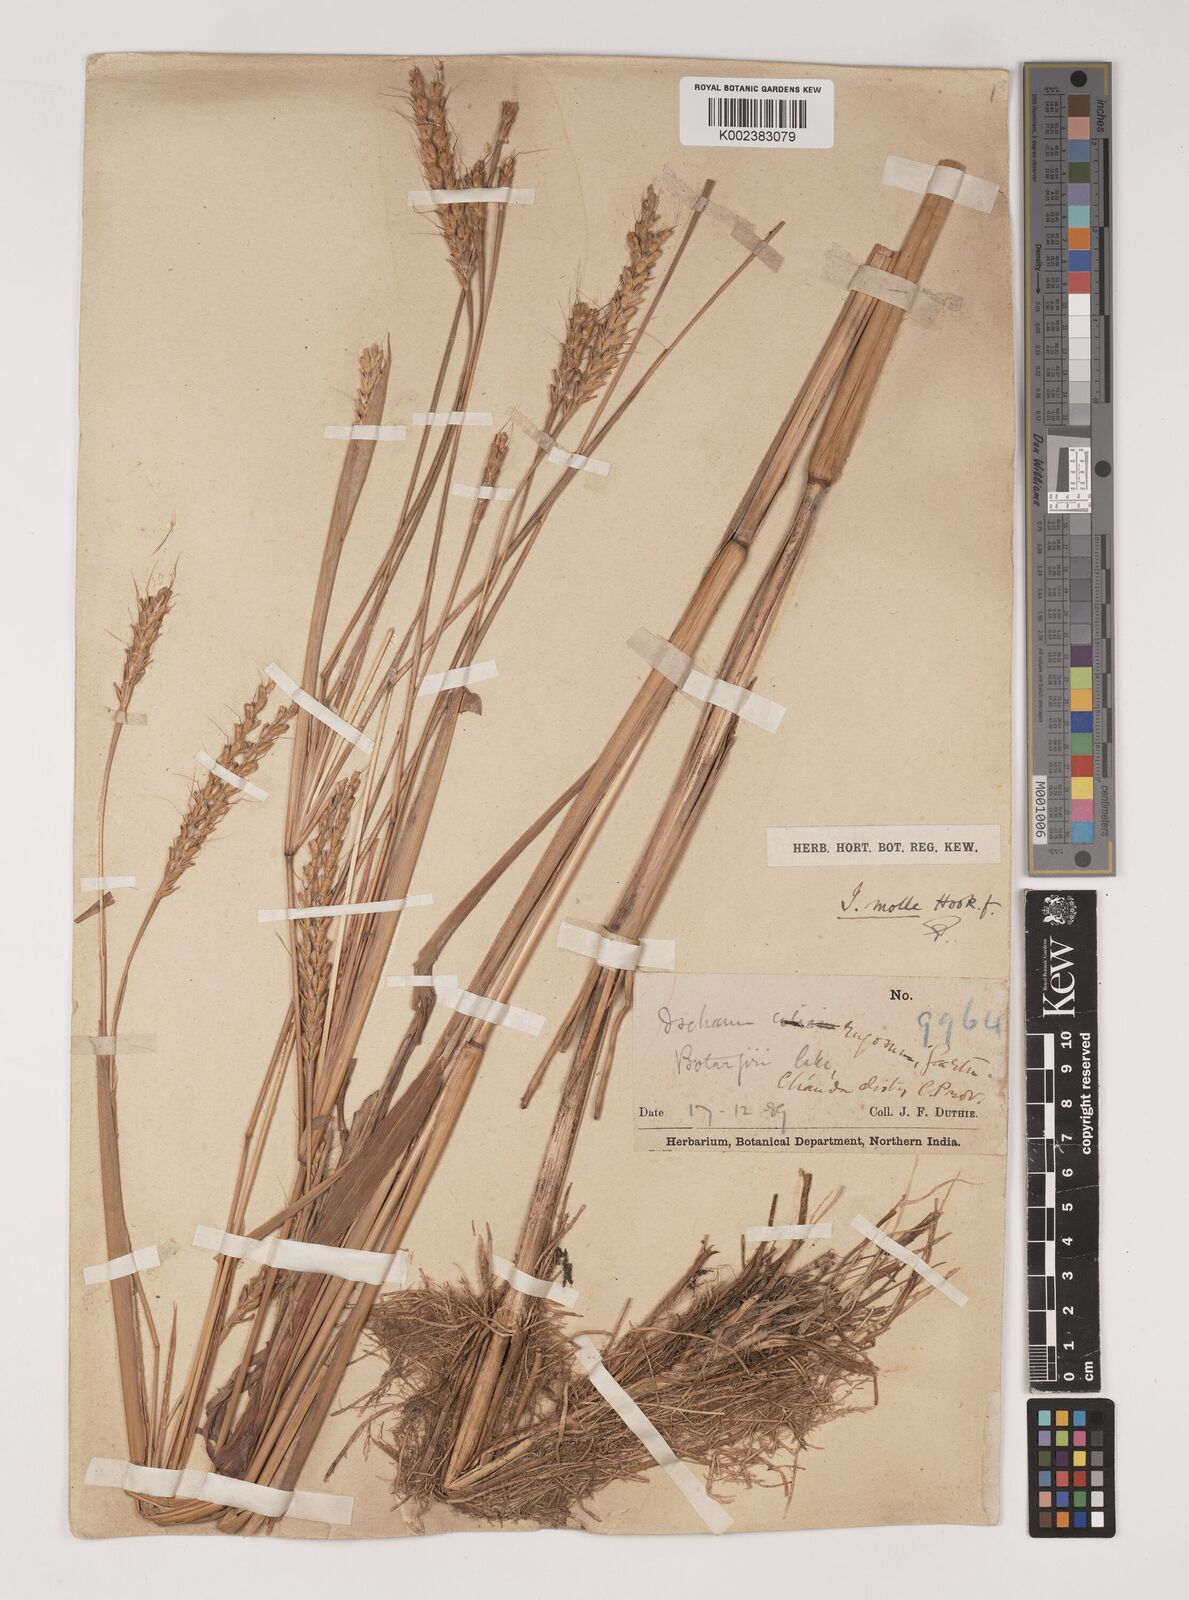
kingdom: Plantae
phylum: Tracheophyta
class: Liliopsida
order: Poales
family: Poaceae
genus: Ischaemum
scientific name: Ischaemum molle
